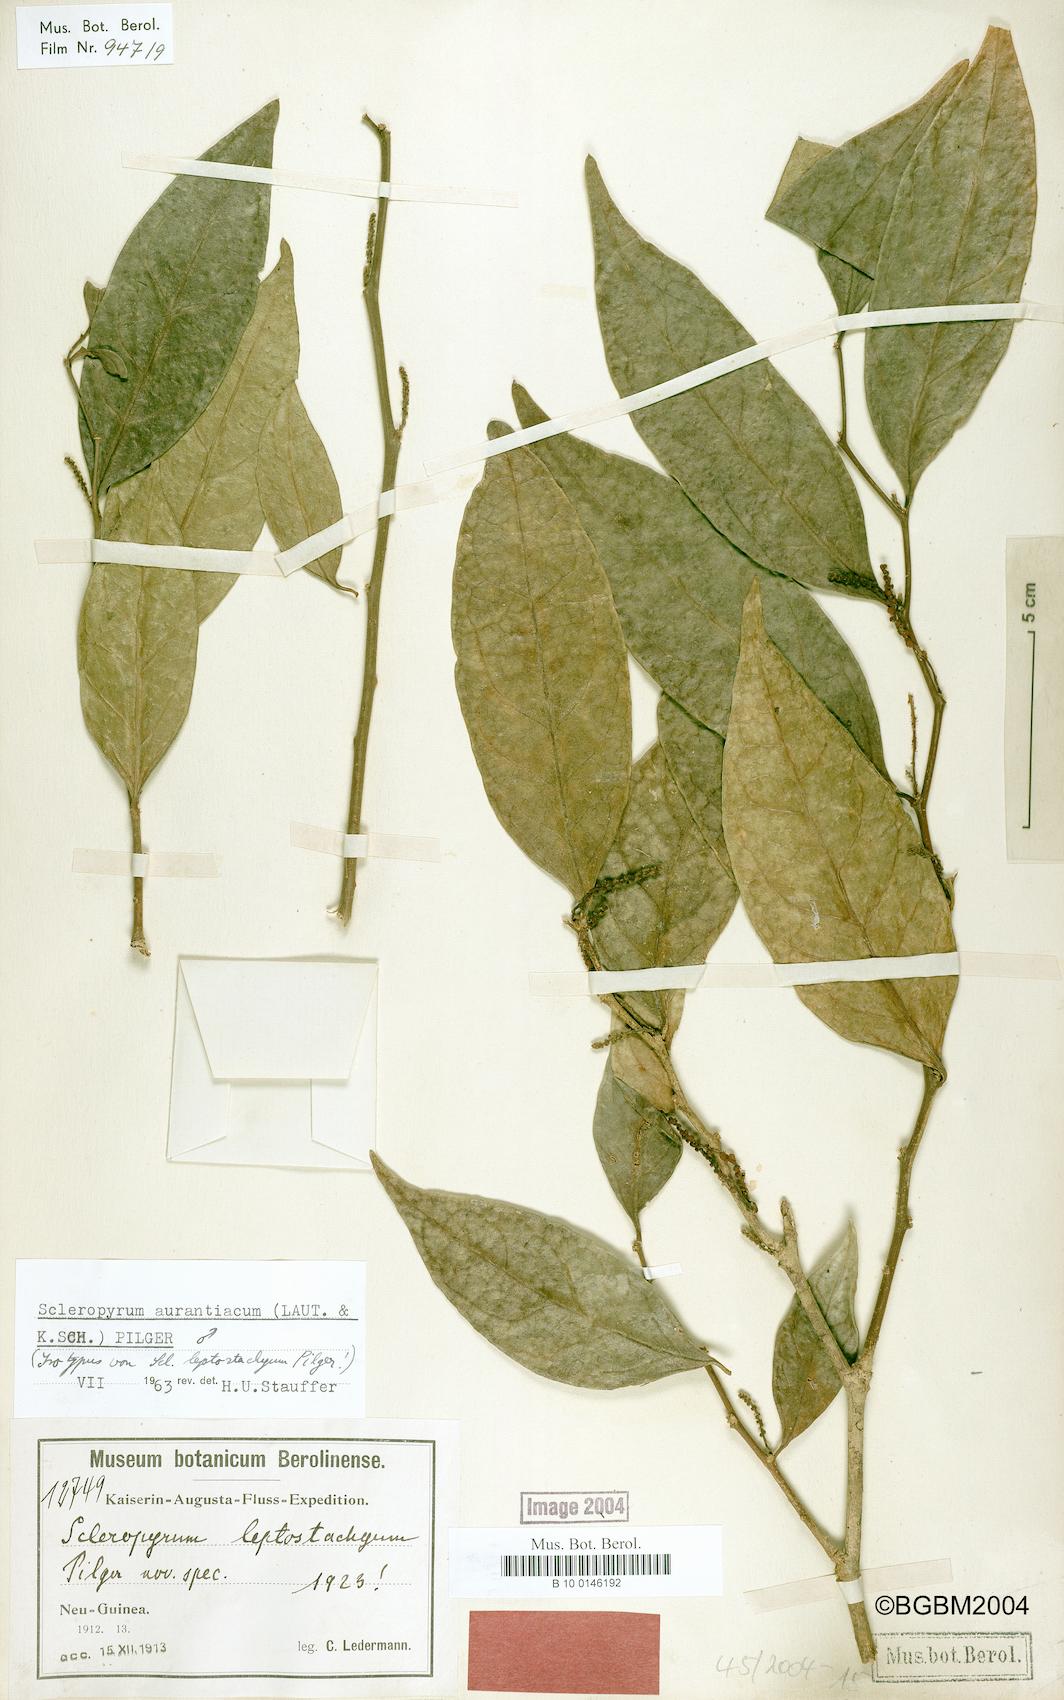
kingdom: Plantae
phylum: Tracheophyta
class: Magnoliopsida
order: Santalales
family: Cervantesiaceae
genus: Scleropyrum
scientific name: Scleropyrum aurantiacum
